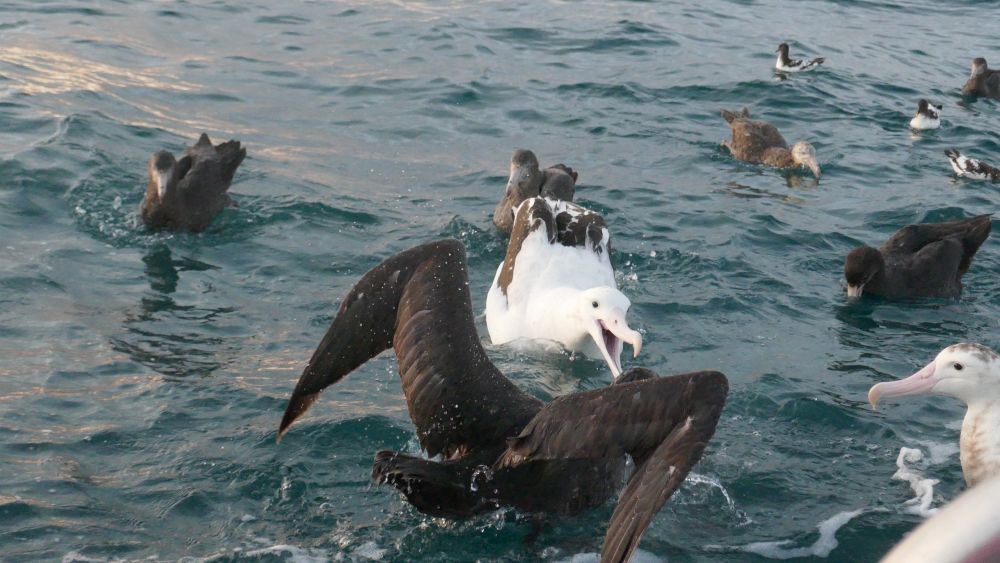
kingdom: Animalia
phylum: Chordata
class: Aves
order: Procellariiformes
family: Diomedeidae
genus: Diomedea
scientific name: Diomedea sanfordi
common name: Northern royal albatross
